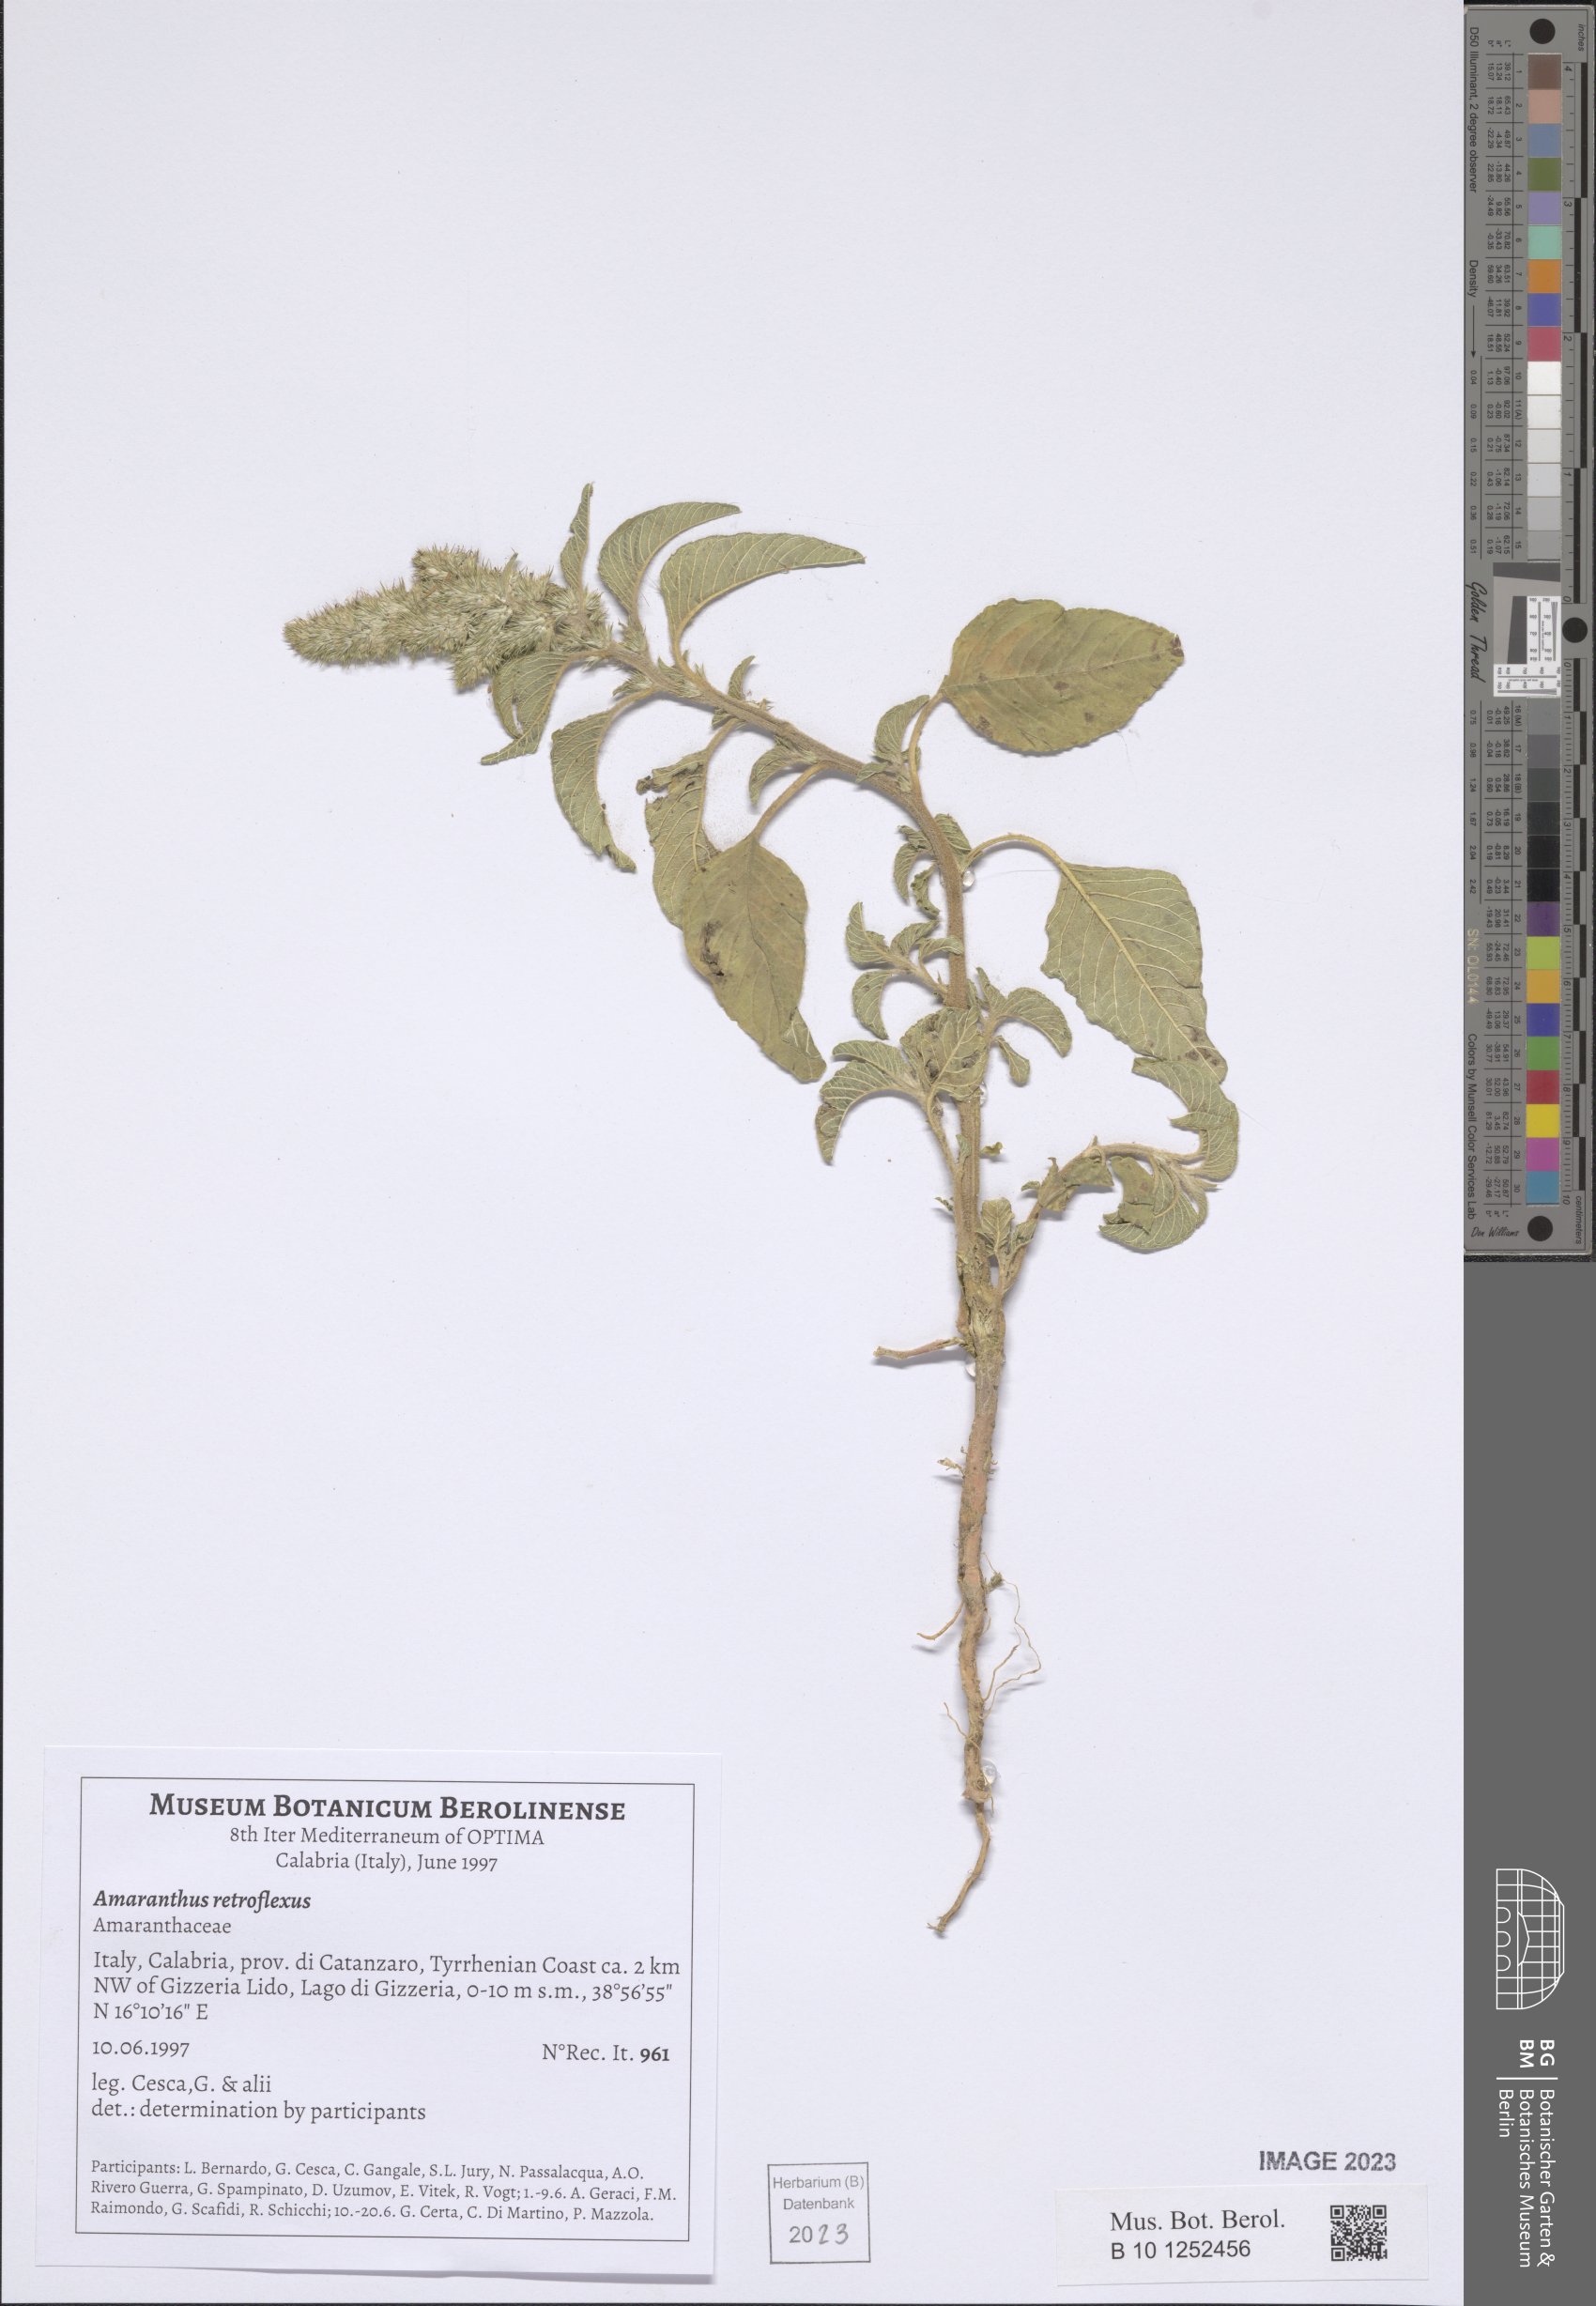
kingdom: Plantae
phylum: Tracheophyta
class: Magnoliopsida
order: Caryophyllales
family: Amaranthaceae
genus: Amaranthus
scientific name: Amaranthus retroflexus
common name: Redroot amaranth
